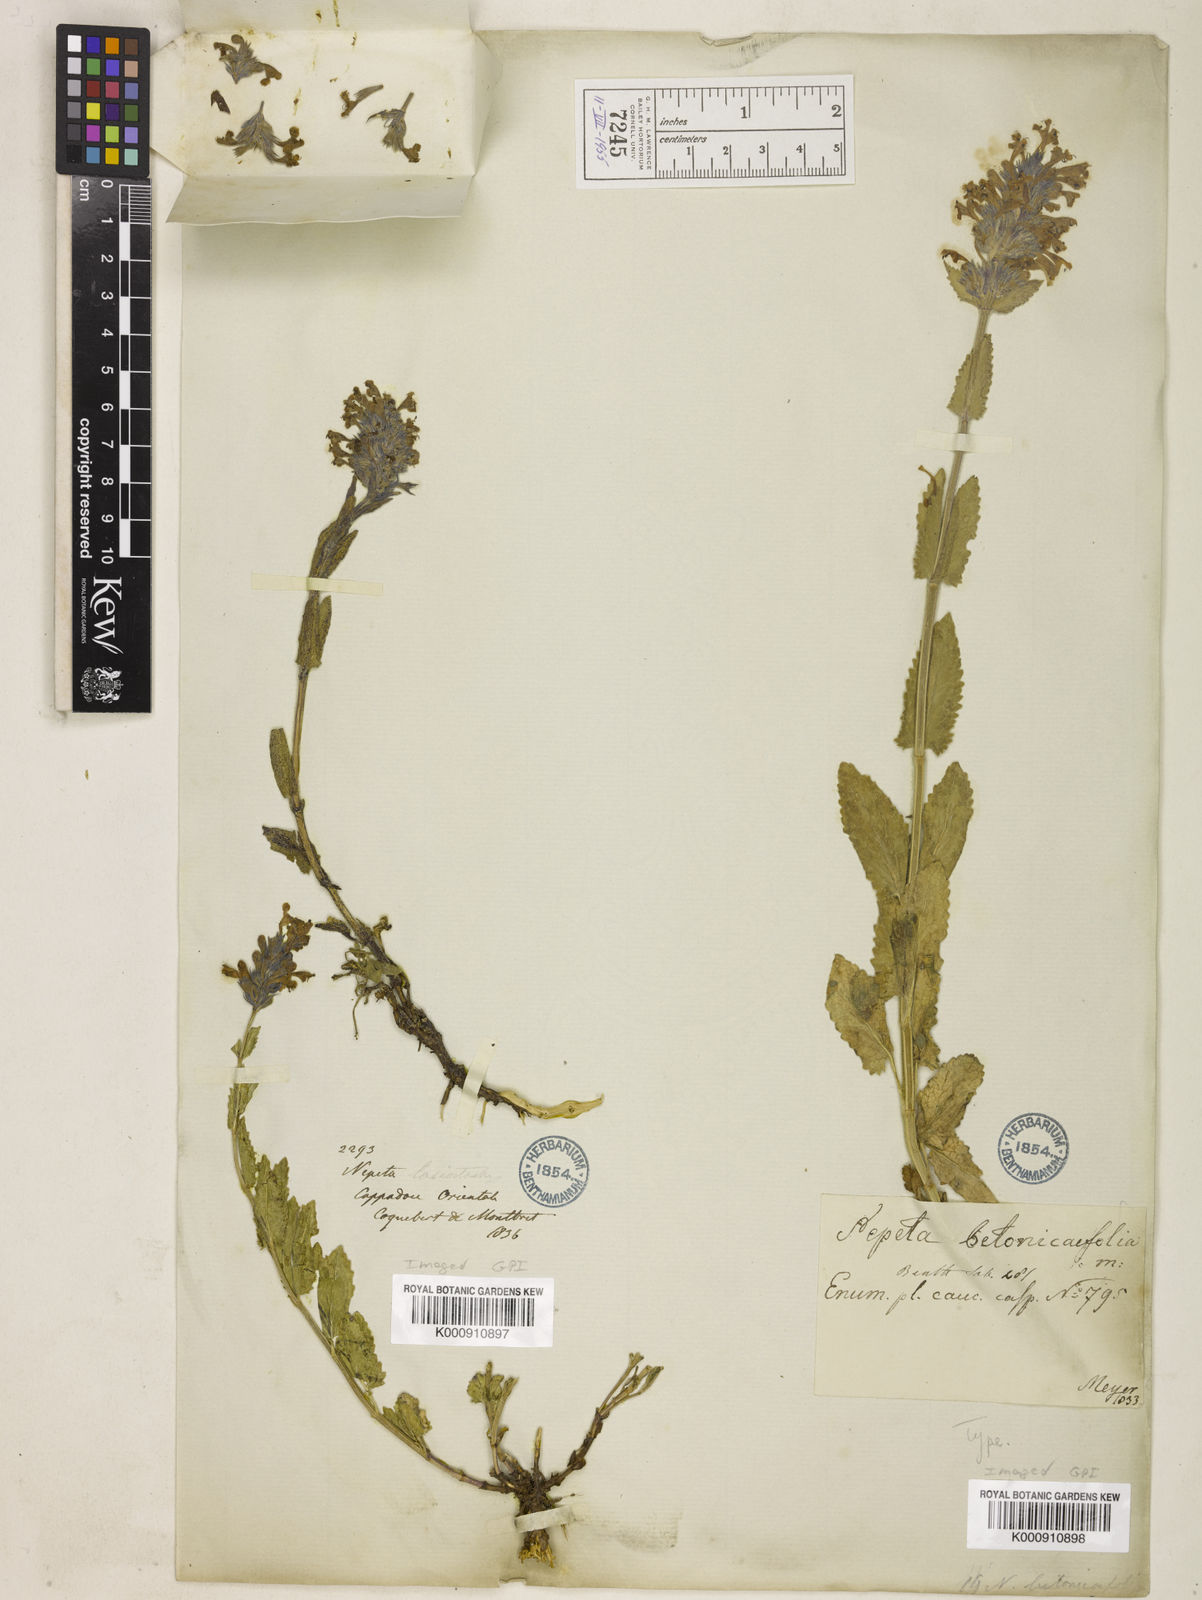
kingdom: Plantae
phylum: Tracheophyta
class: Magnoliopsida
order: Lamiales
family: Lamiaceae
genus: Nepeta
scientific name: Nepeta betonicifolia
